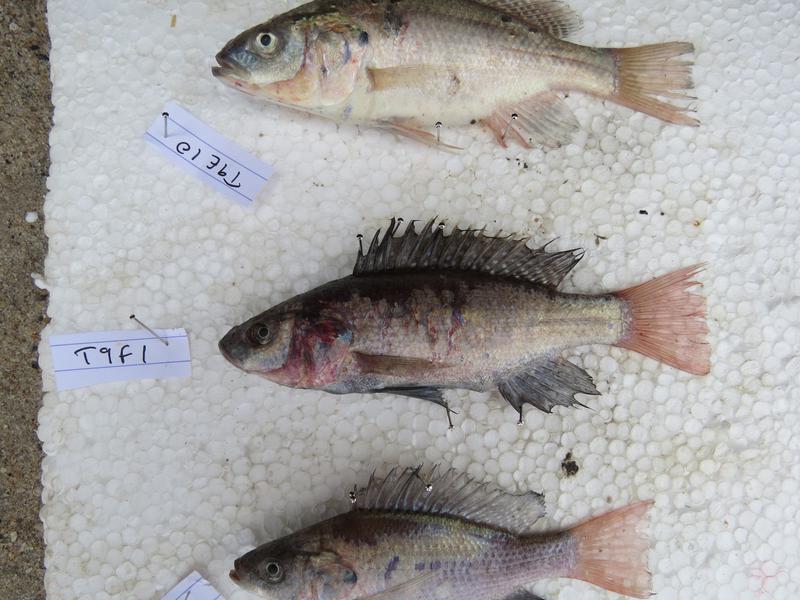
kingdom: Animalia
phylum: Chordata
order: Perciformes
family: Cichlidae
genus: Oreochromis
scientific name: Oreochromis amphimelas
